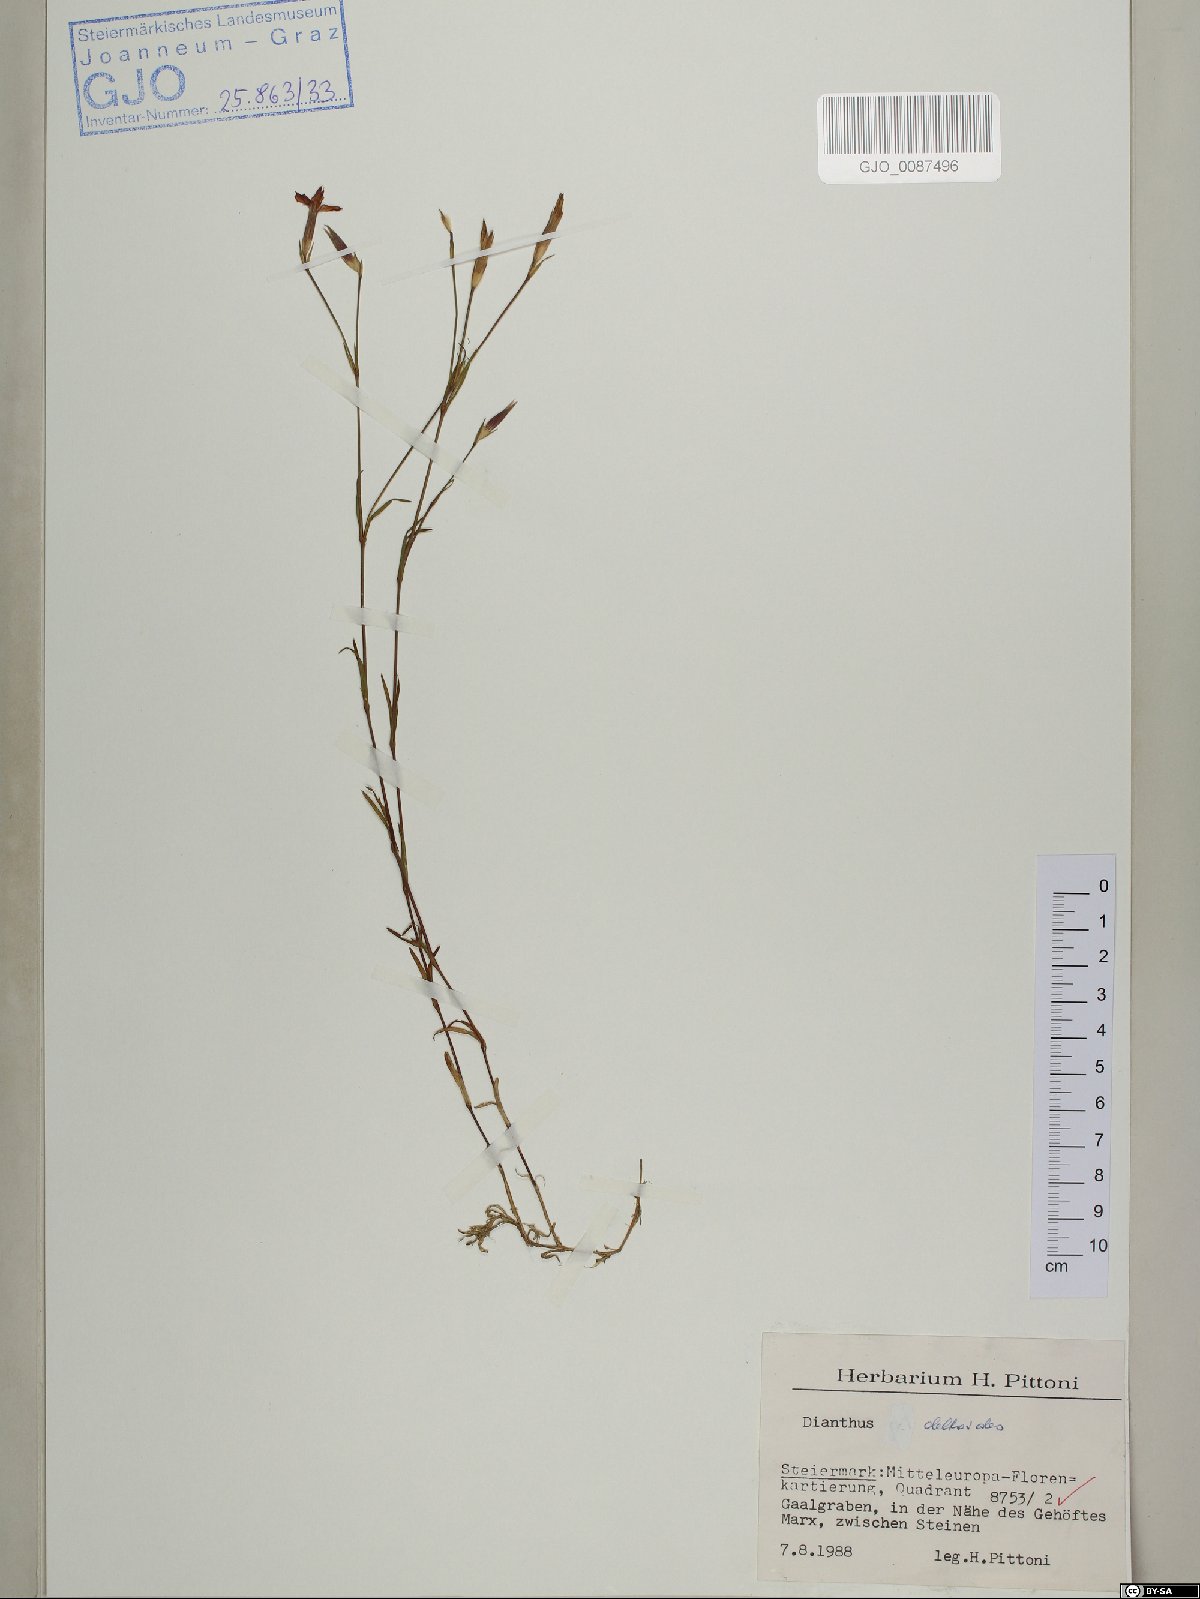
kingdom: Plantae
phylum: Tracheophyta
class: Magnoliopsida
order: Caryophyllales
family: Caryophyllaceae
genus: Dianthus
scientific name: Dianthus deltoides
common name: Maiden pink
